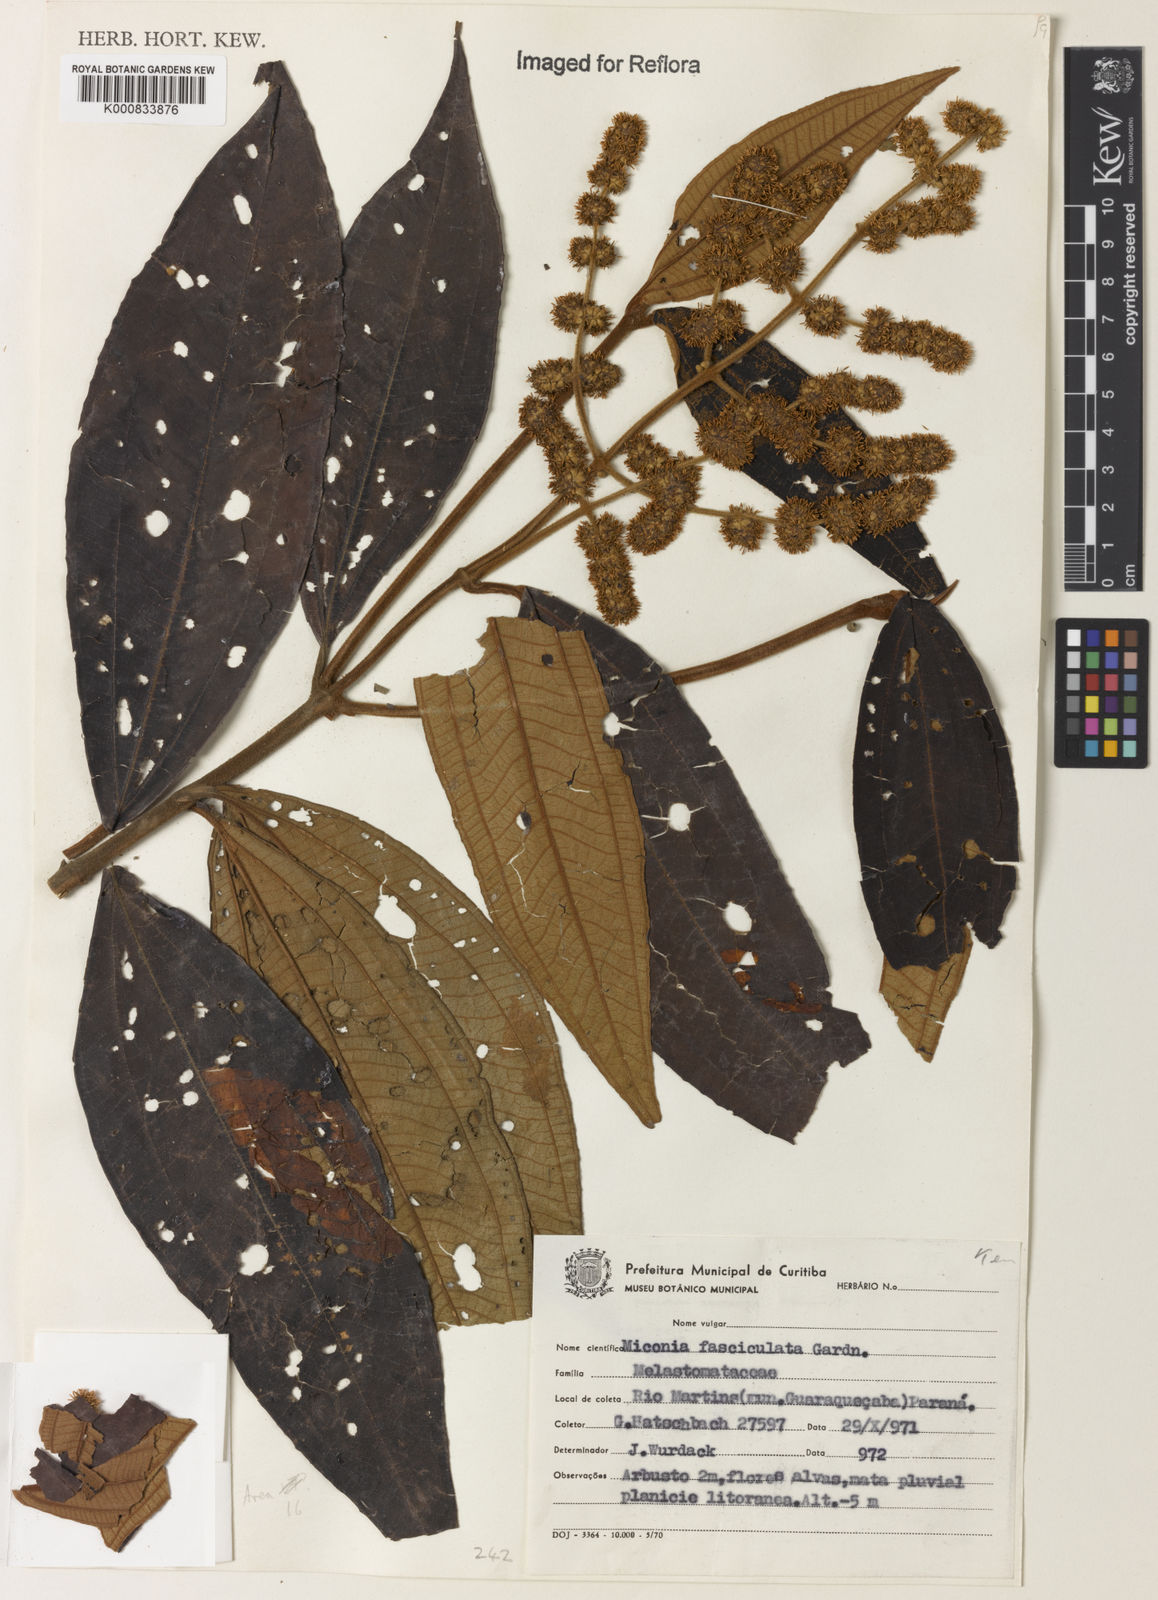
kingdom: Plantae
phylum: Tracheophyta
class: Magnoliopsida
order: Myrtales
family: Melastomataceae
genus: Miconia
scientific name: Miconia fasciculata
